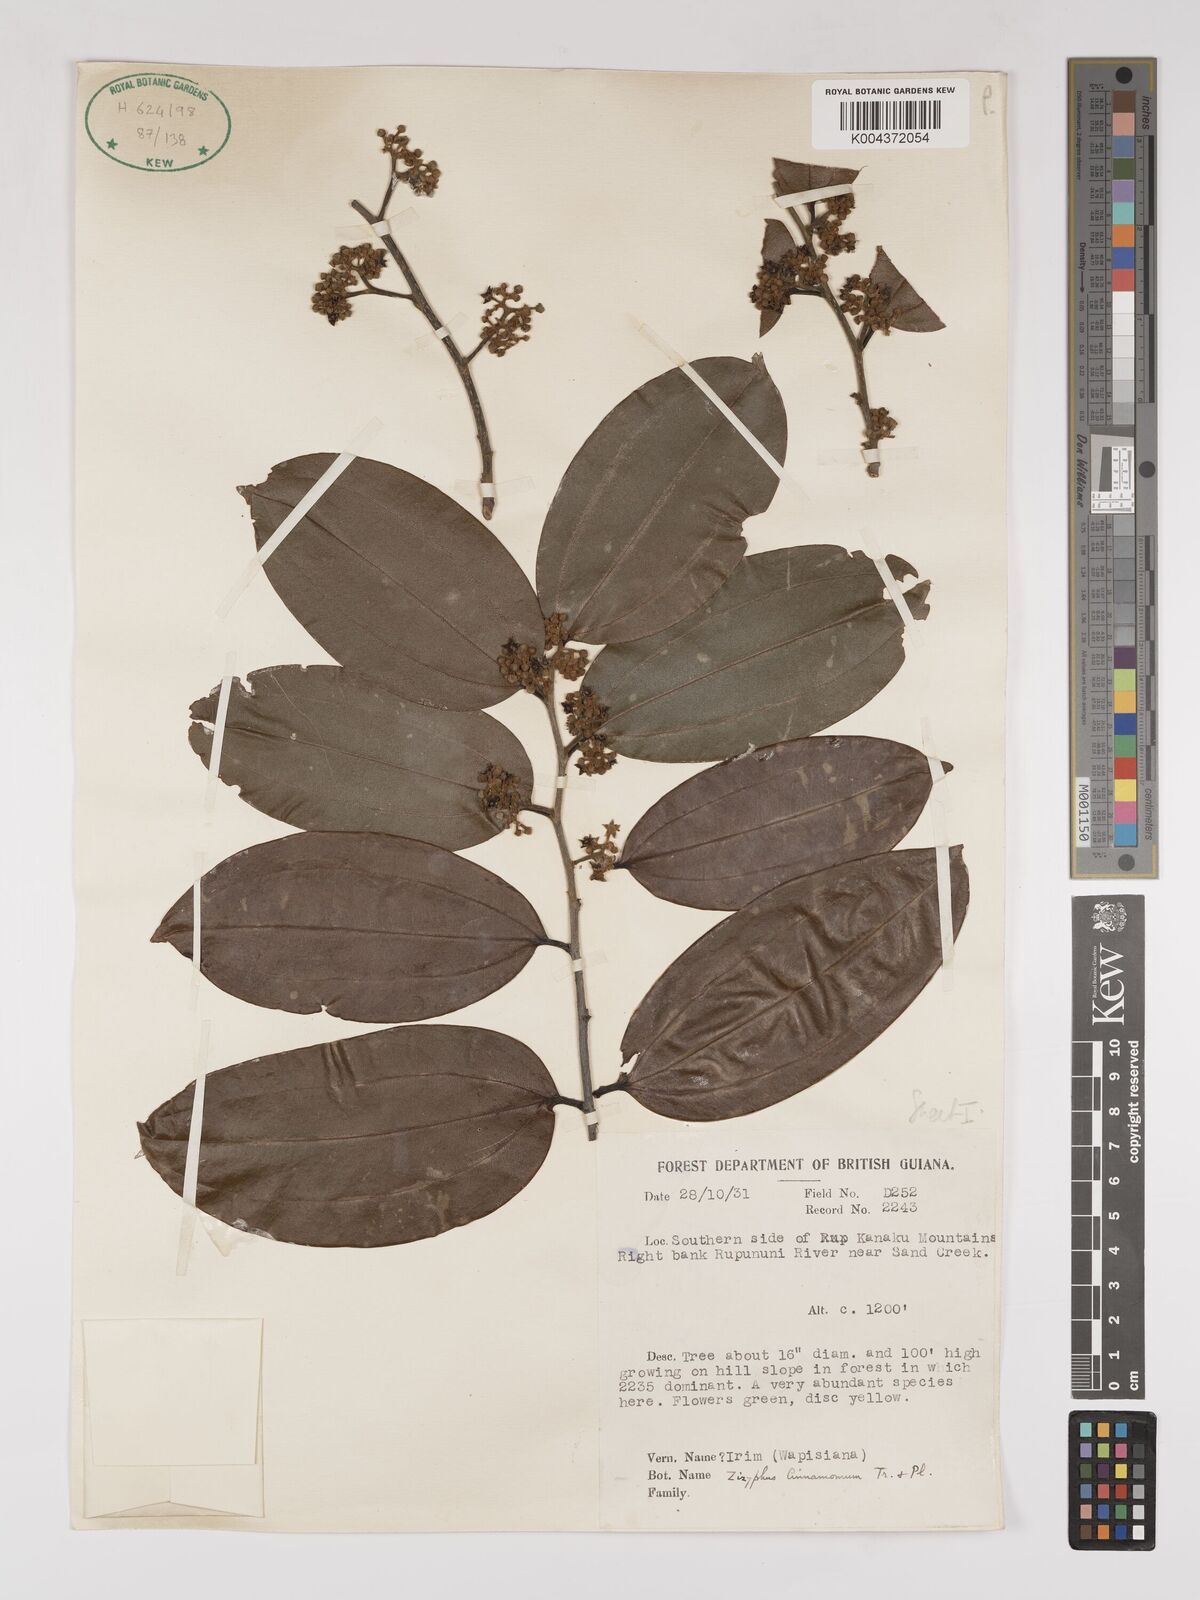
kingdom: Plantae
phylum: Tracheophyta
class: Magnoliopsida
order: Rosales
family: Rhamnaceae
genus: Sarcomphalus
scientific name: Sarcomphalus cinnamomum
